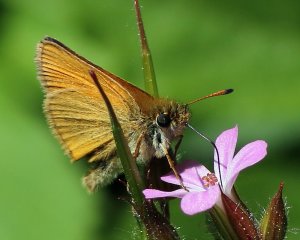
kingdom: Animalia
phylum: Arthropoda
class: Insecta
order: Lepidoptera
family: Hesperiidae
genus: Thymelicus
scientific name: Thymelicus lineola
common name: European Skipper
